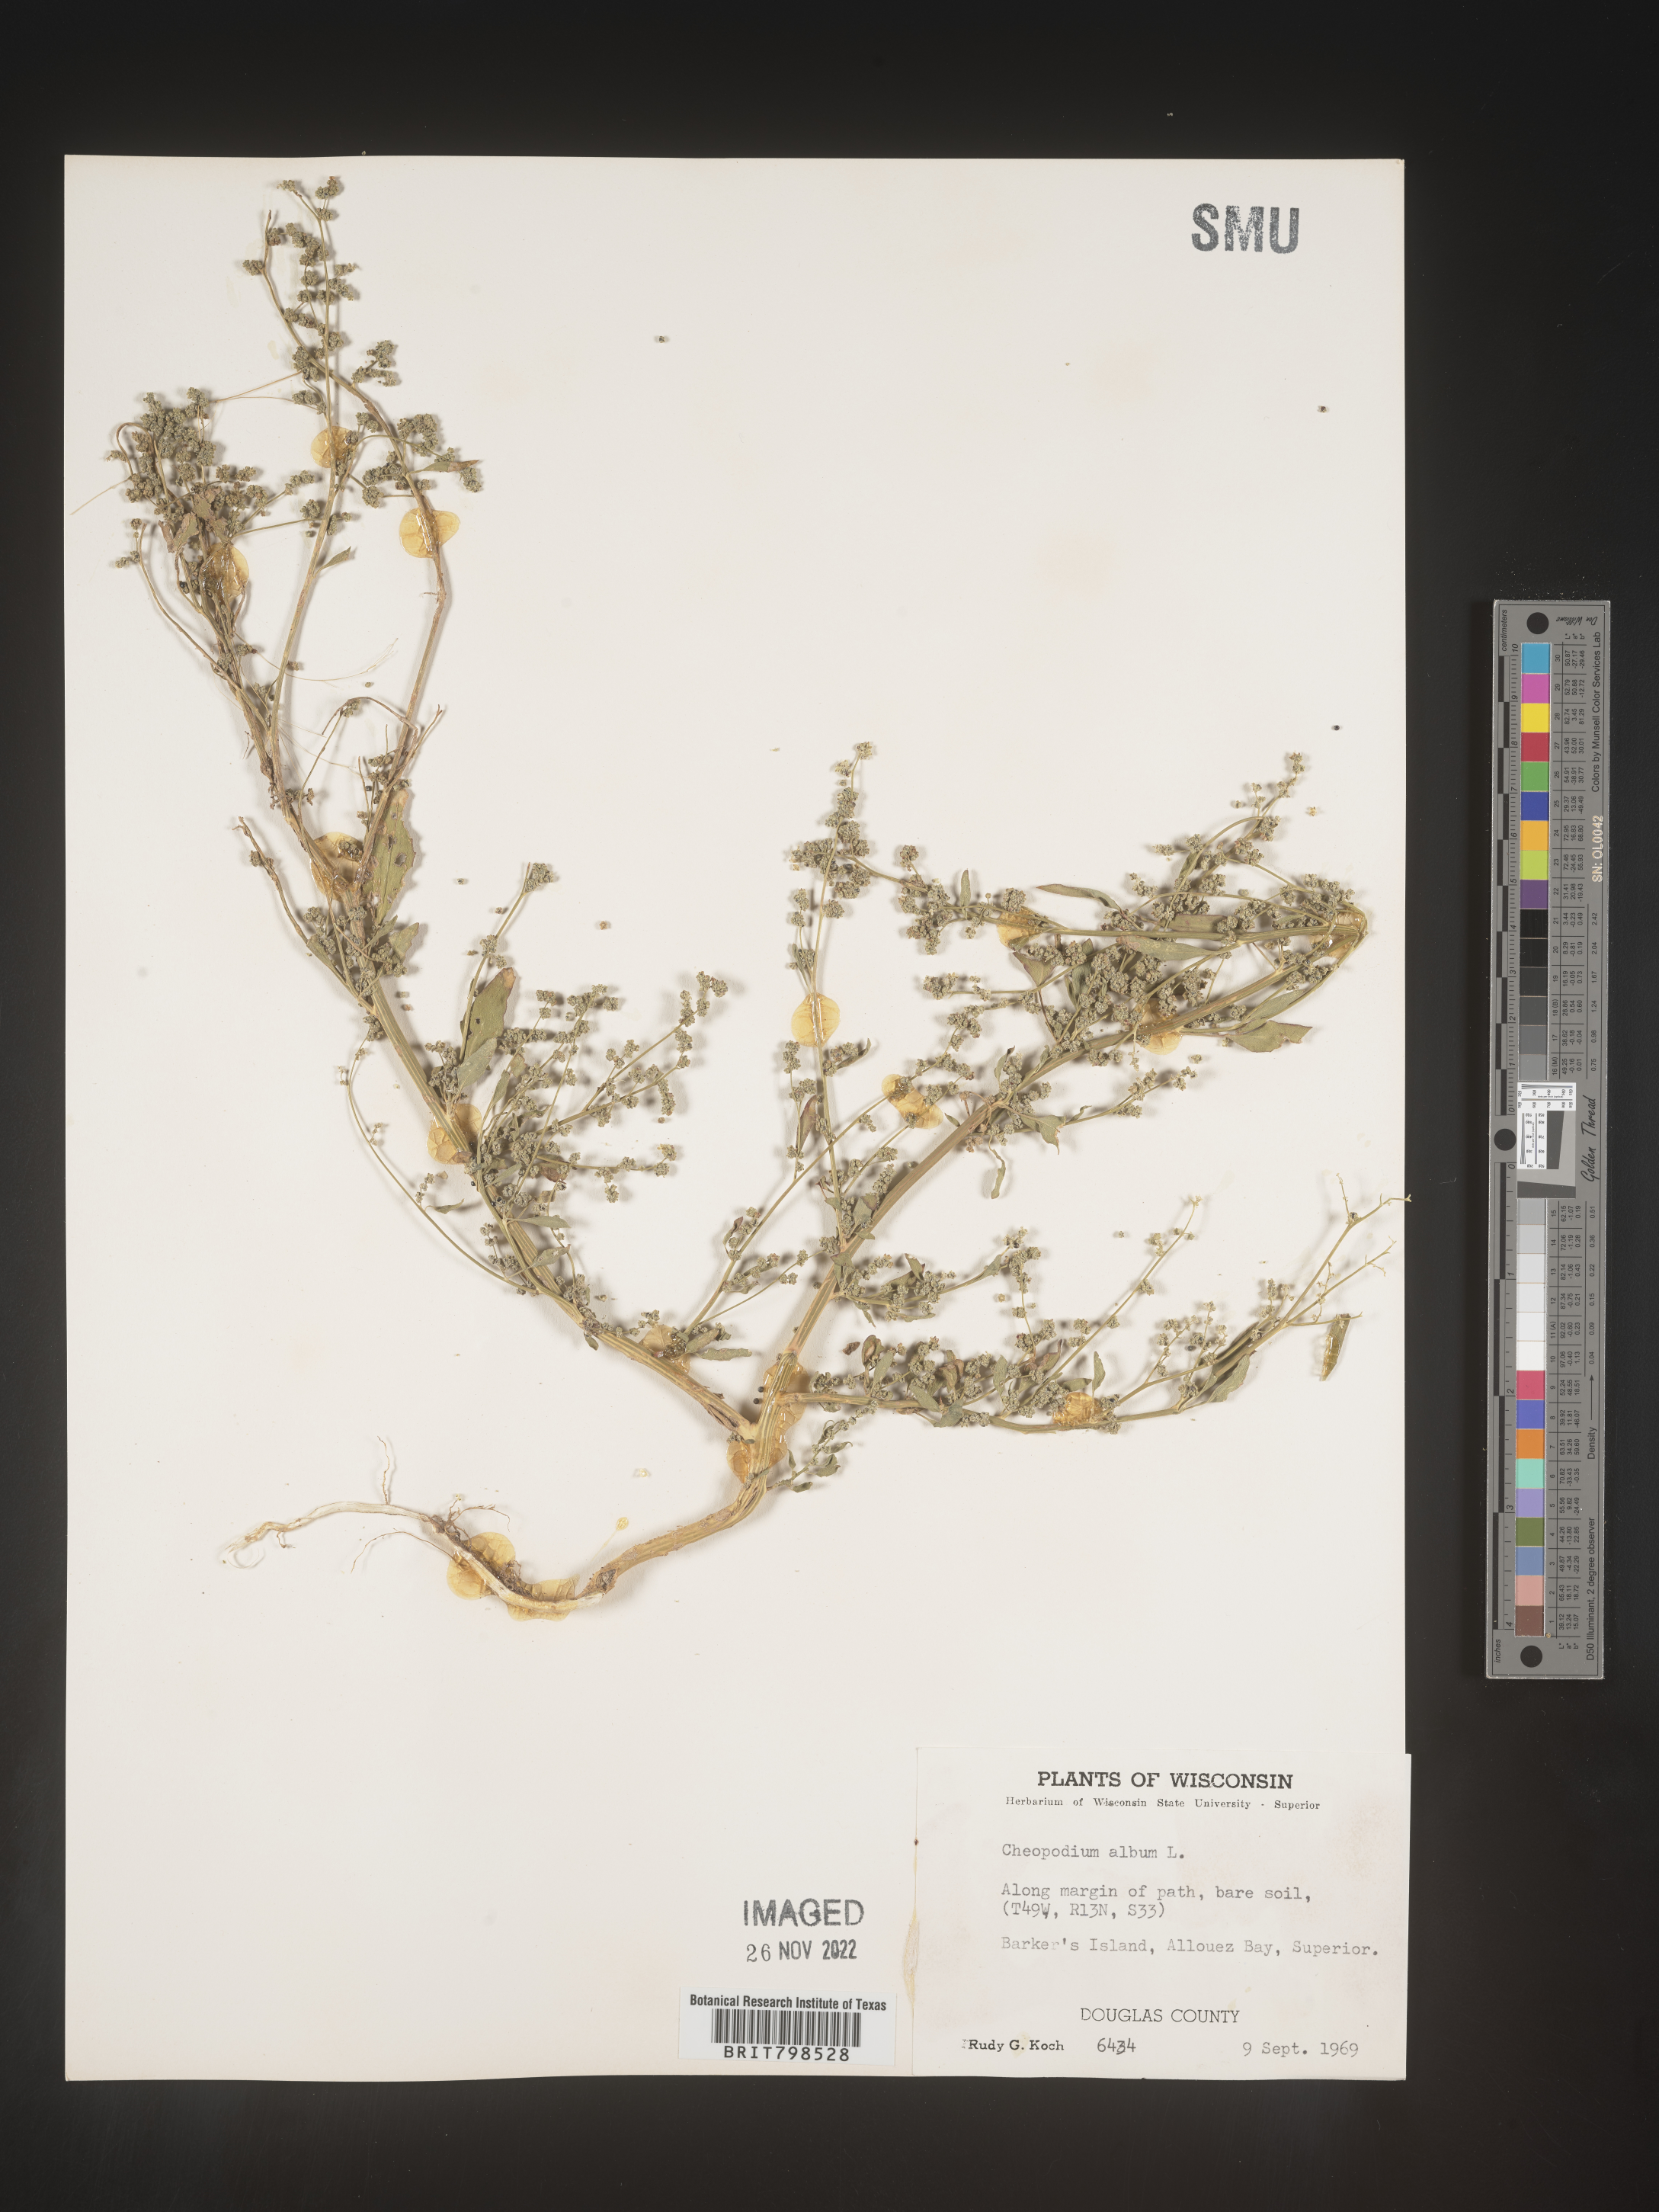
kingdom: Plantae
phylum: Tracheophyta
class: Magnoliopsida
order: Caryophyllales
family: Amaranthaceae
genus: Chenopodium
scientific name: Chenopodium album
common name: Fat-hen
